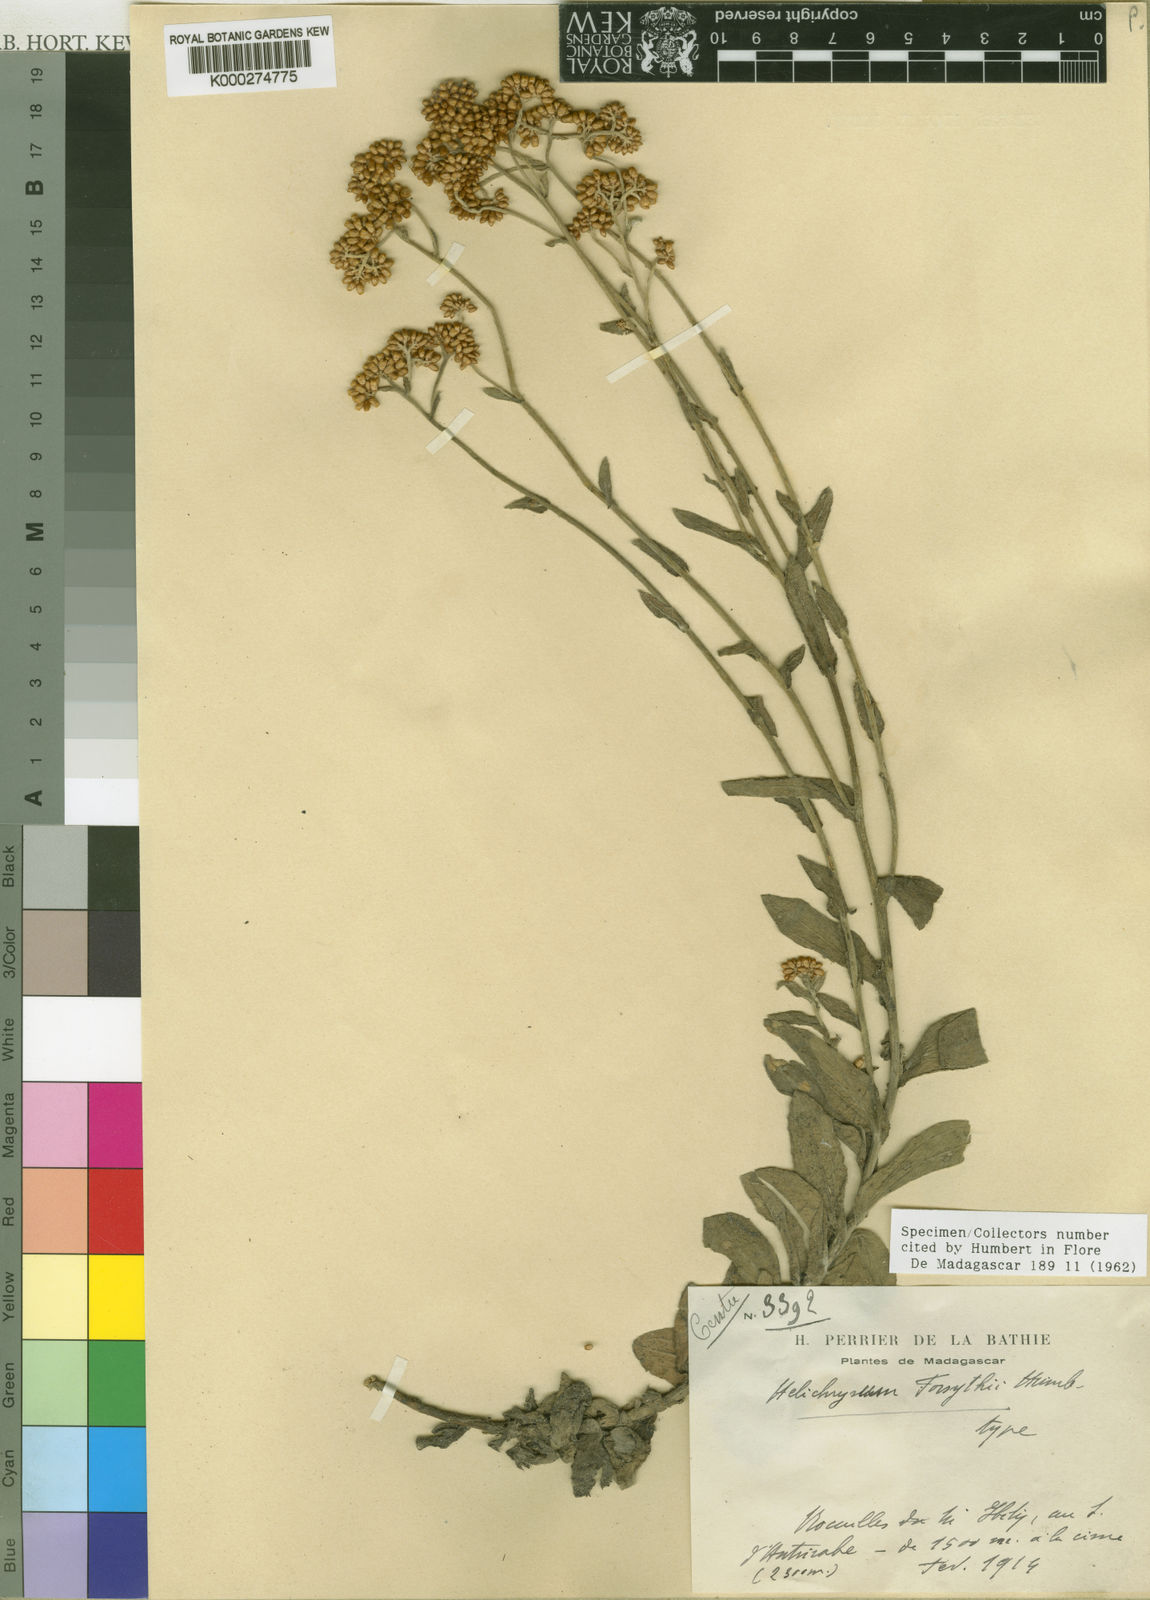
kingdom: Plantae
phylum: Tracheophyta
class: Magnoliopsida
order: Asterales
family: Asteraceae
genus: Helichrysum
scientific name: Helichrysum forsythii
